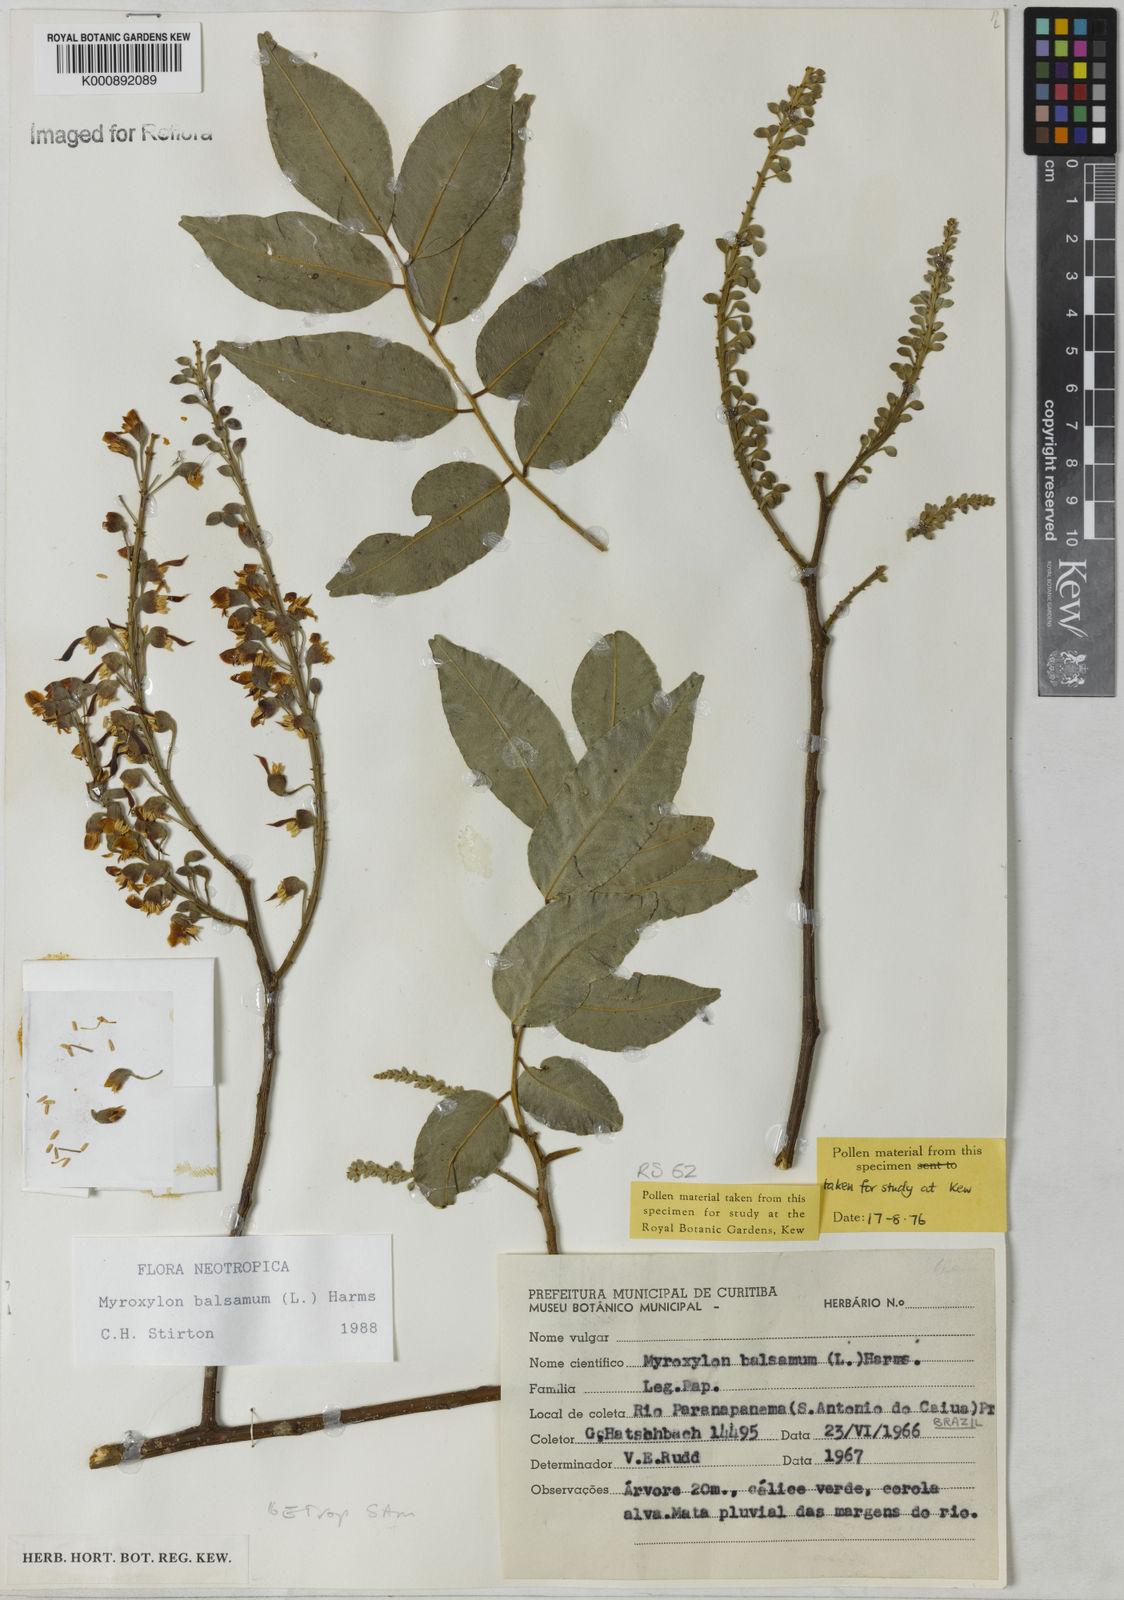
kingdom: Plantae
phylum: Tracheophyta
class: Magnoliopsida
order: Fabales
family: Fabaceae
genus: Myroxylon
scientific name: Myroxylon balsamum
